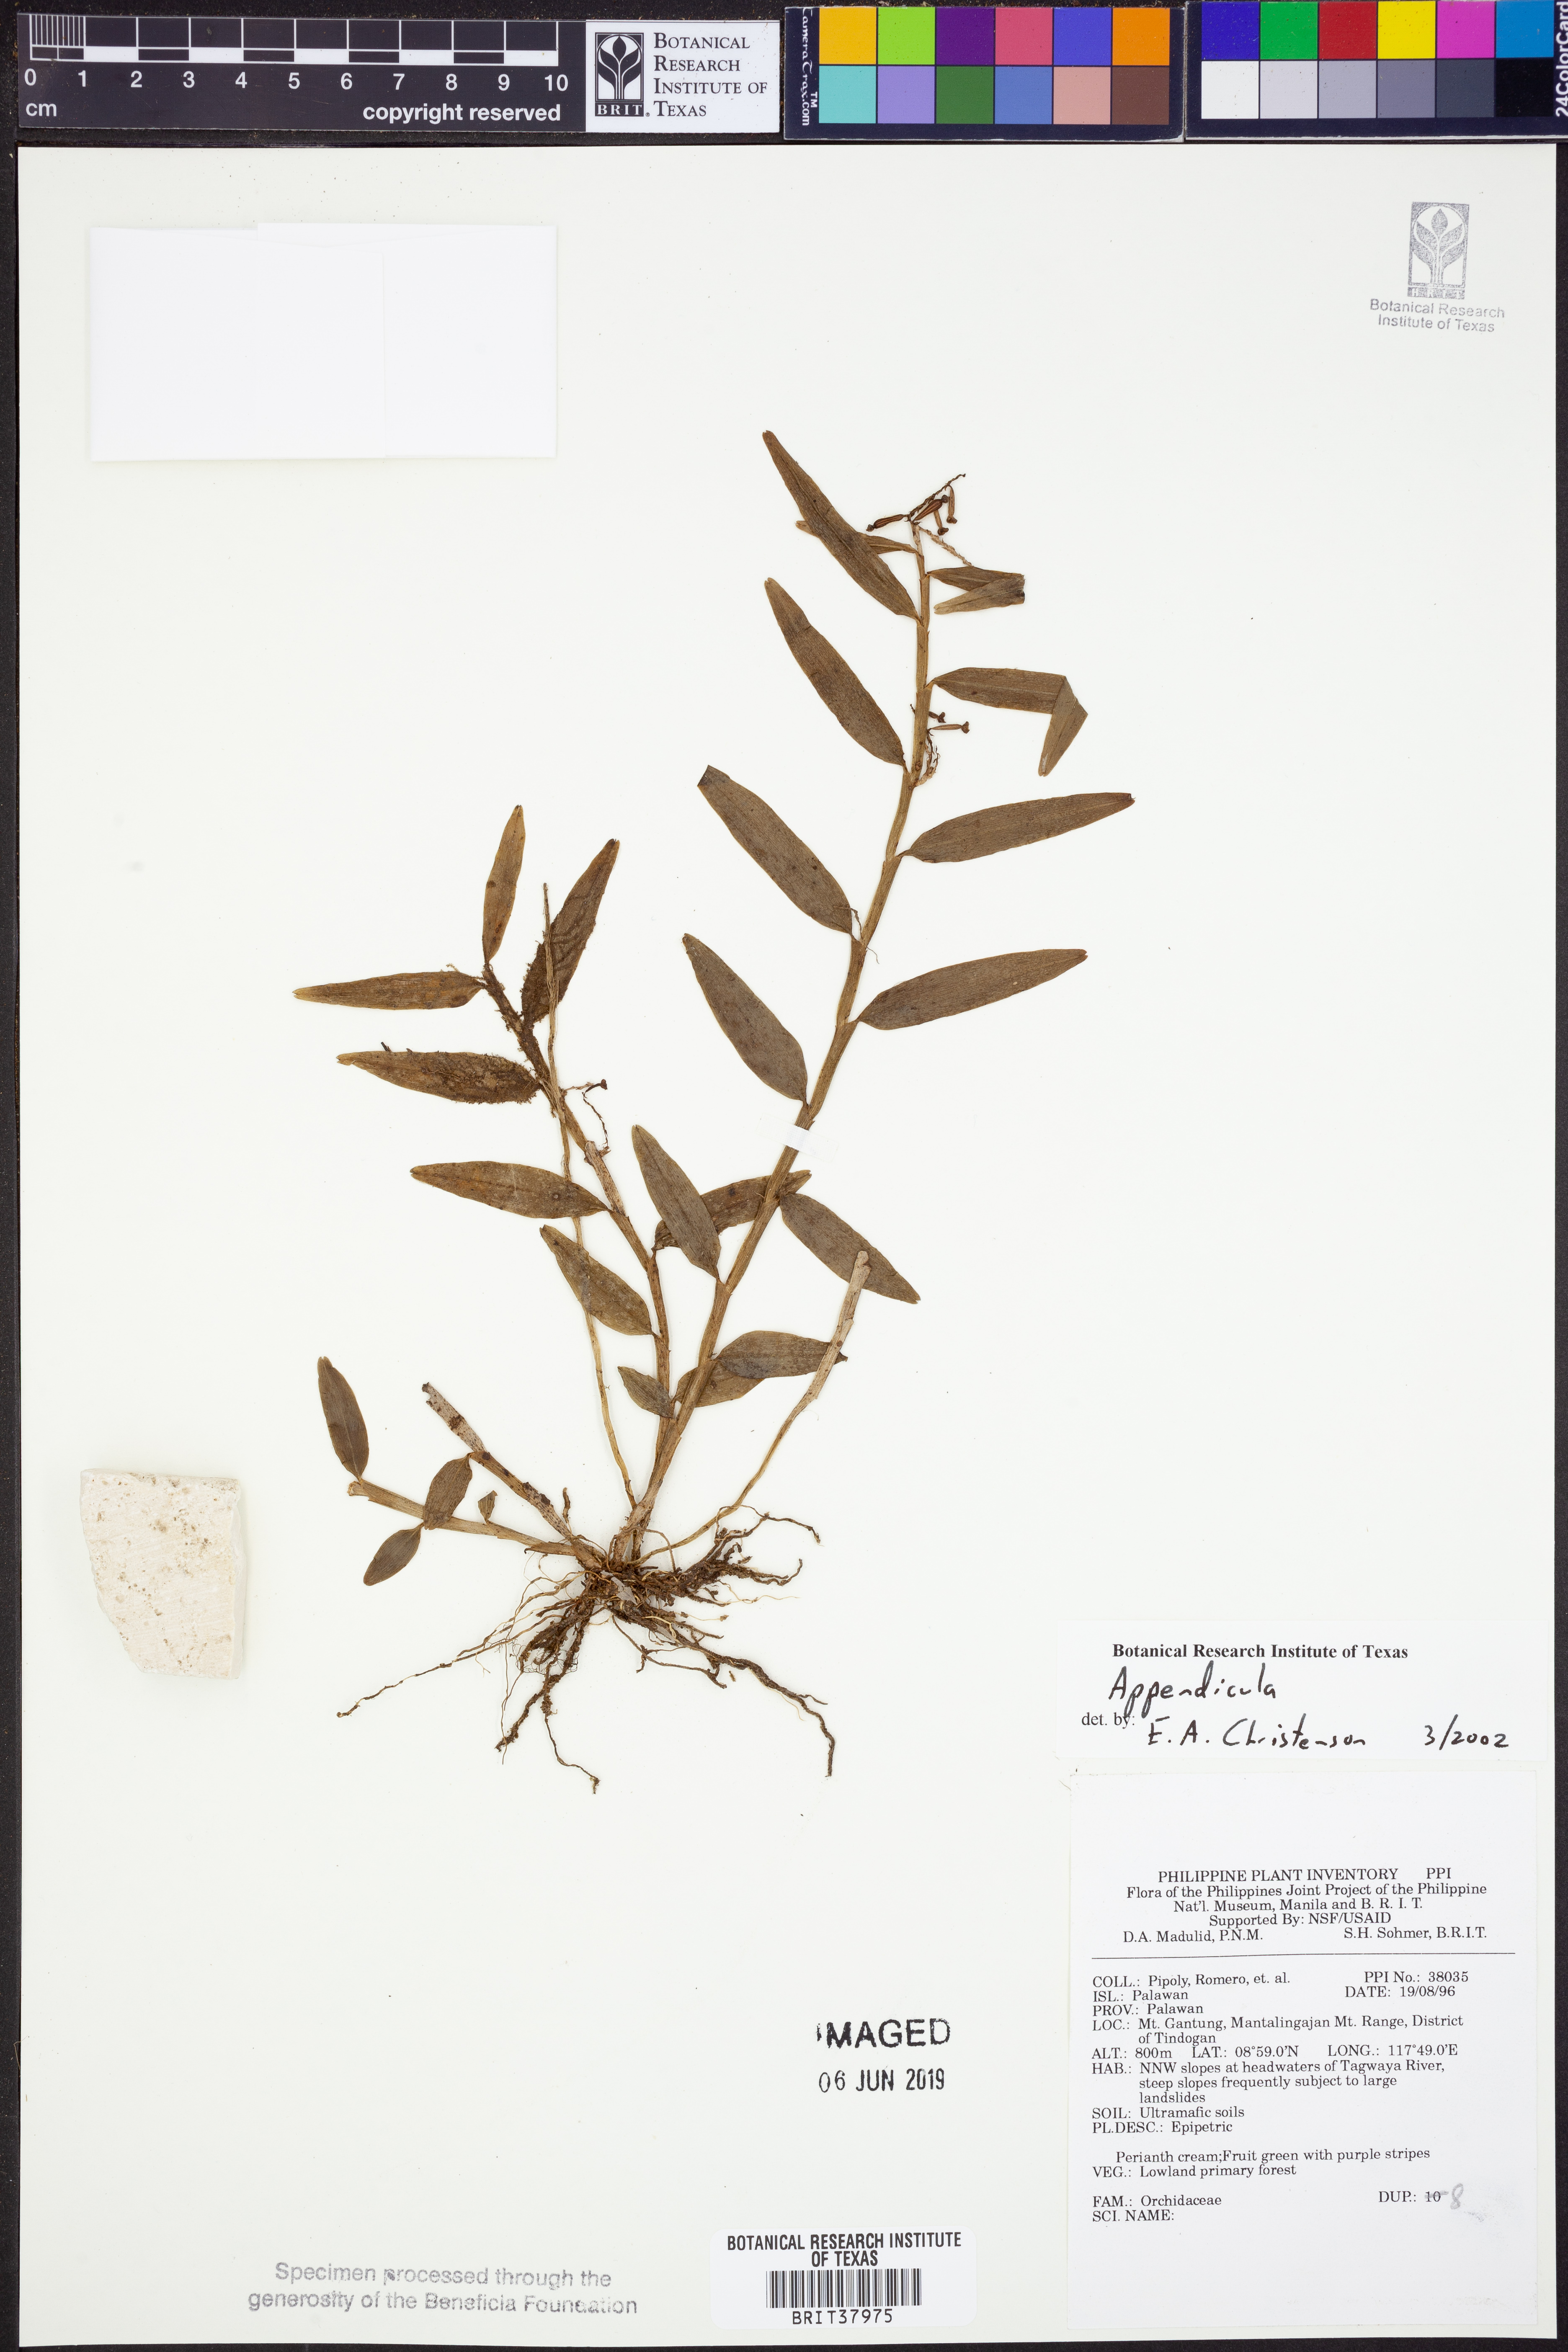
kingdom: Plantae
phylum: Tracheophyta
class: Liliopsida
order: Asparagales
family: Orchidaceae
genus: Appendicula
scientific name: Appendicula
